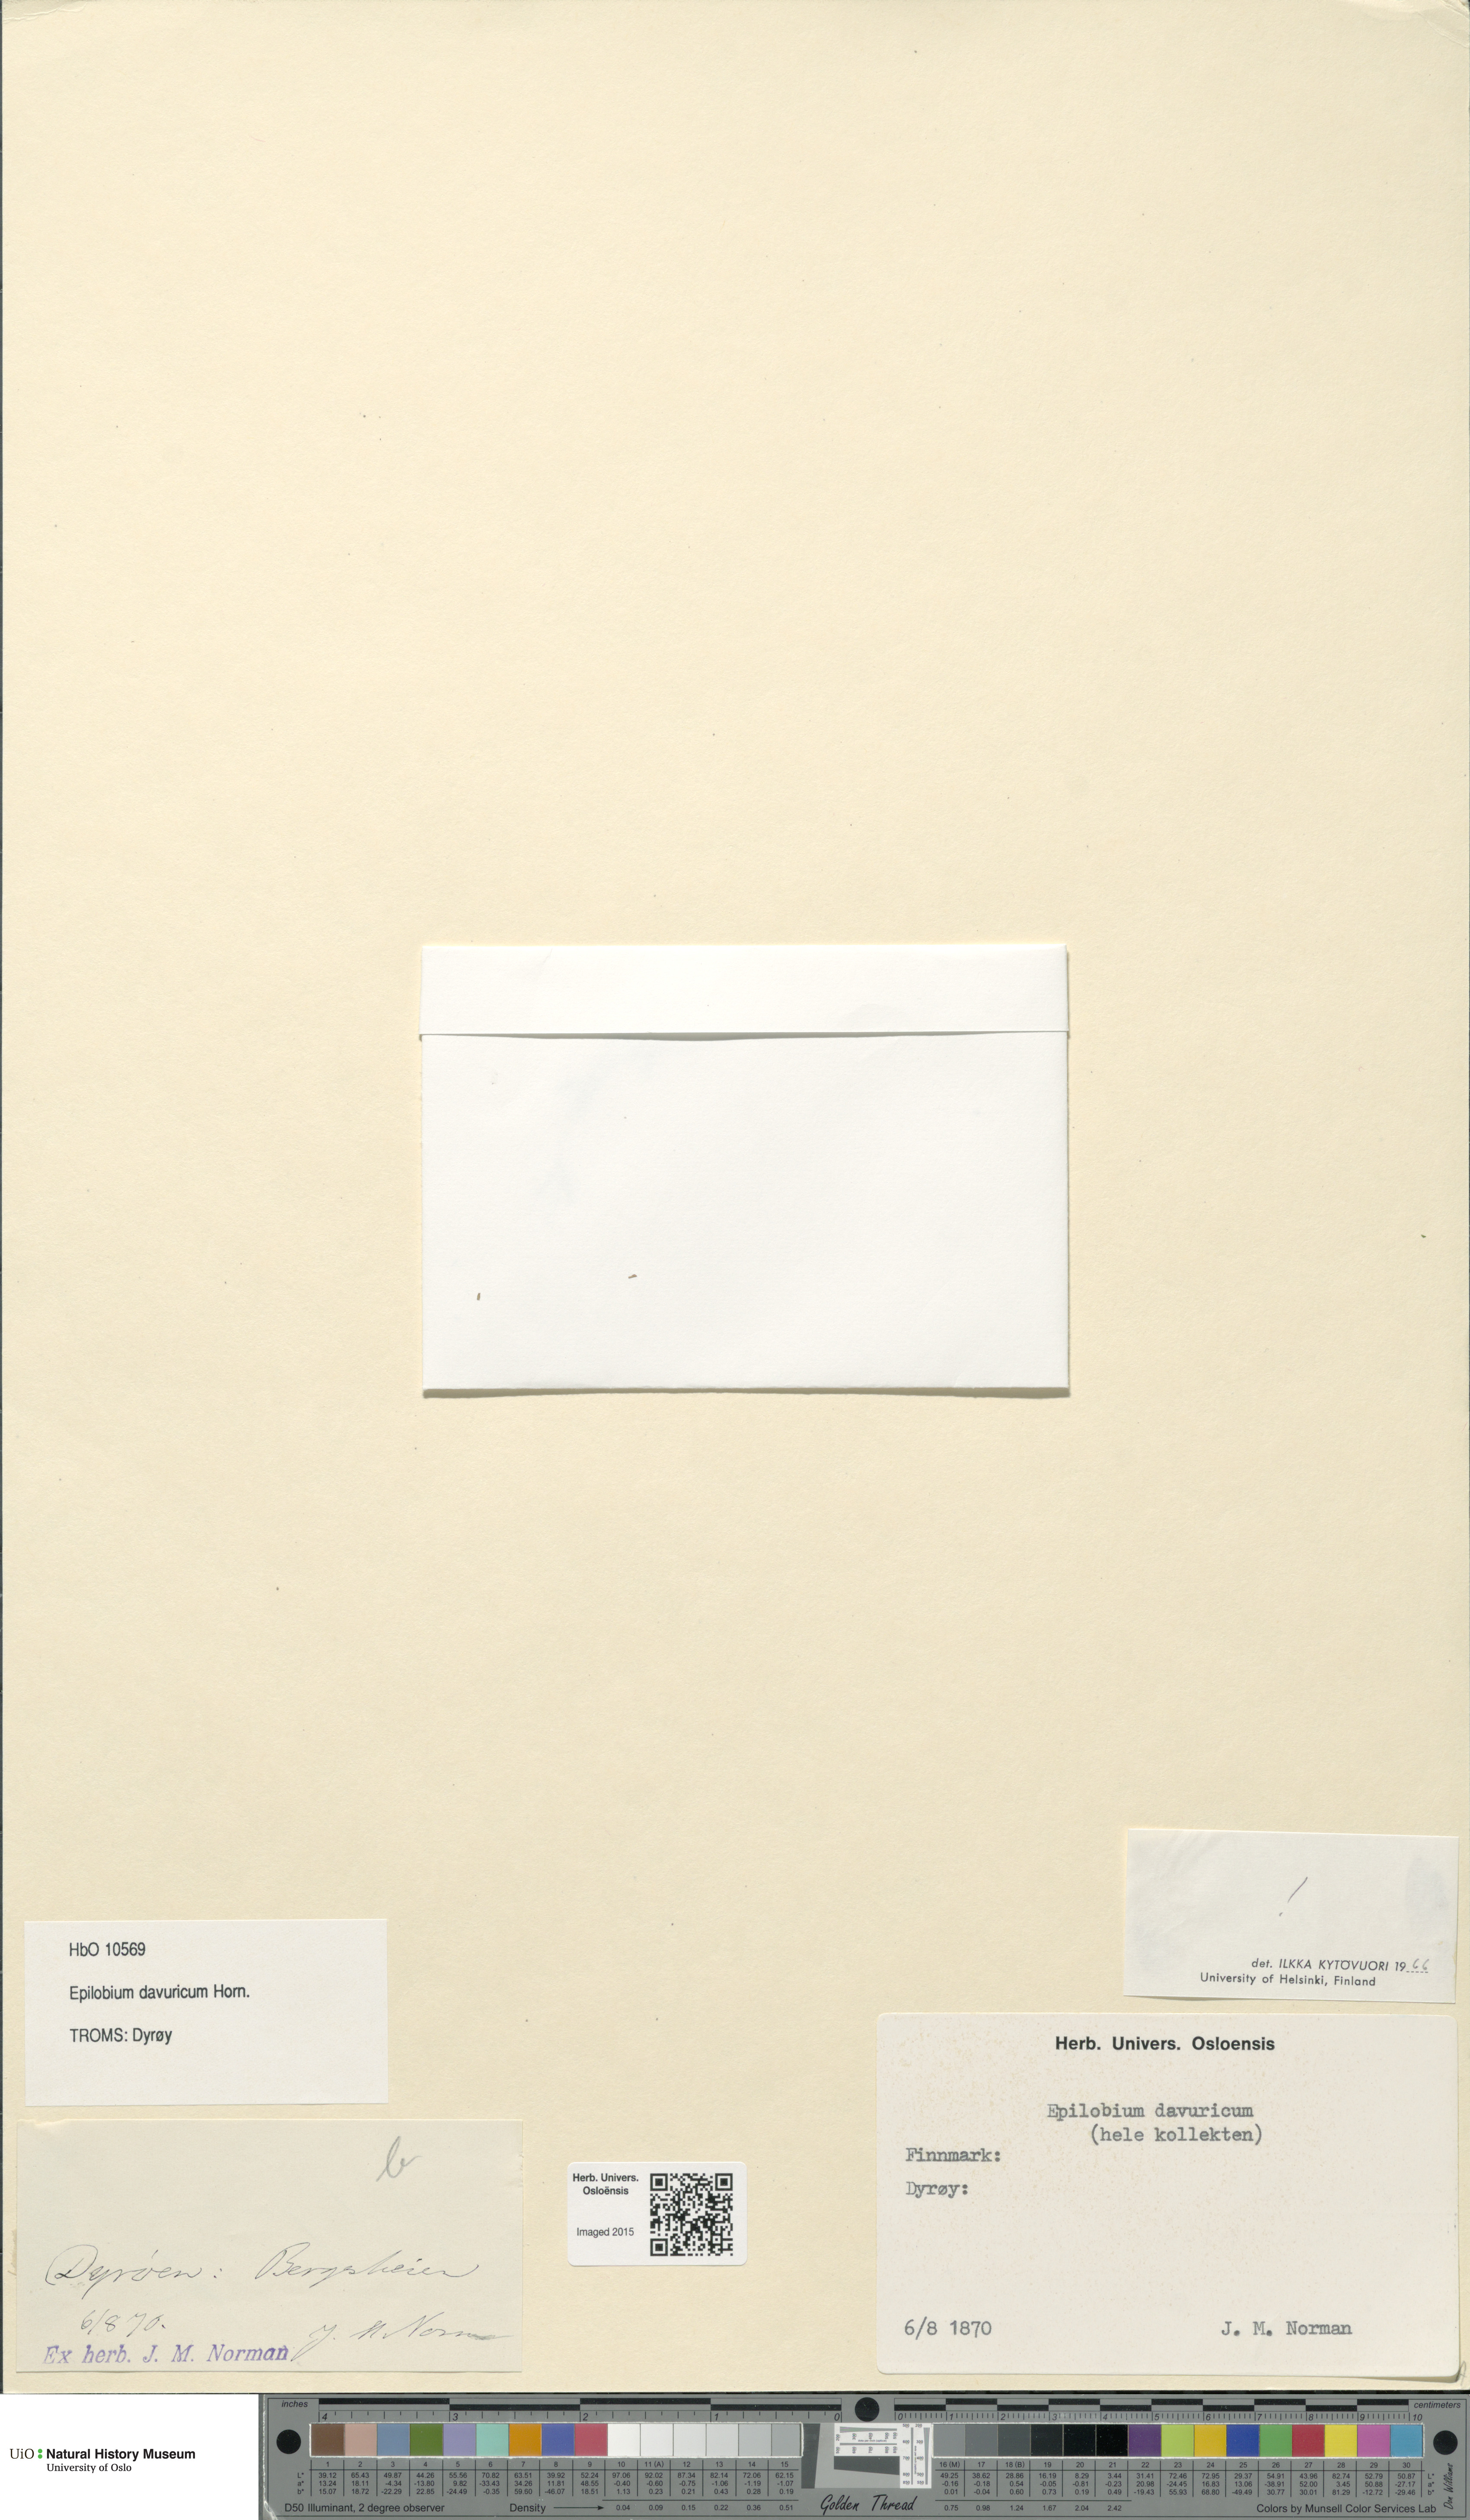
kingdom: Plantae
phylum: Tracheophyta
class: Magnoliopsida
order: Myrtales
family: Onagraceae
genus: Epilobium
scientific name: Epilobium davuricum
